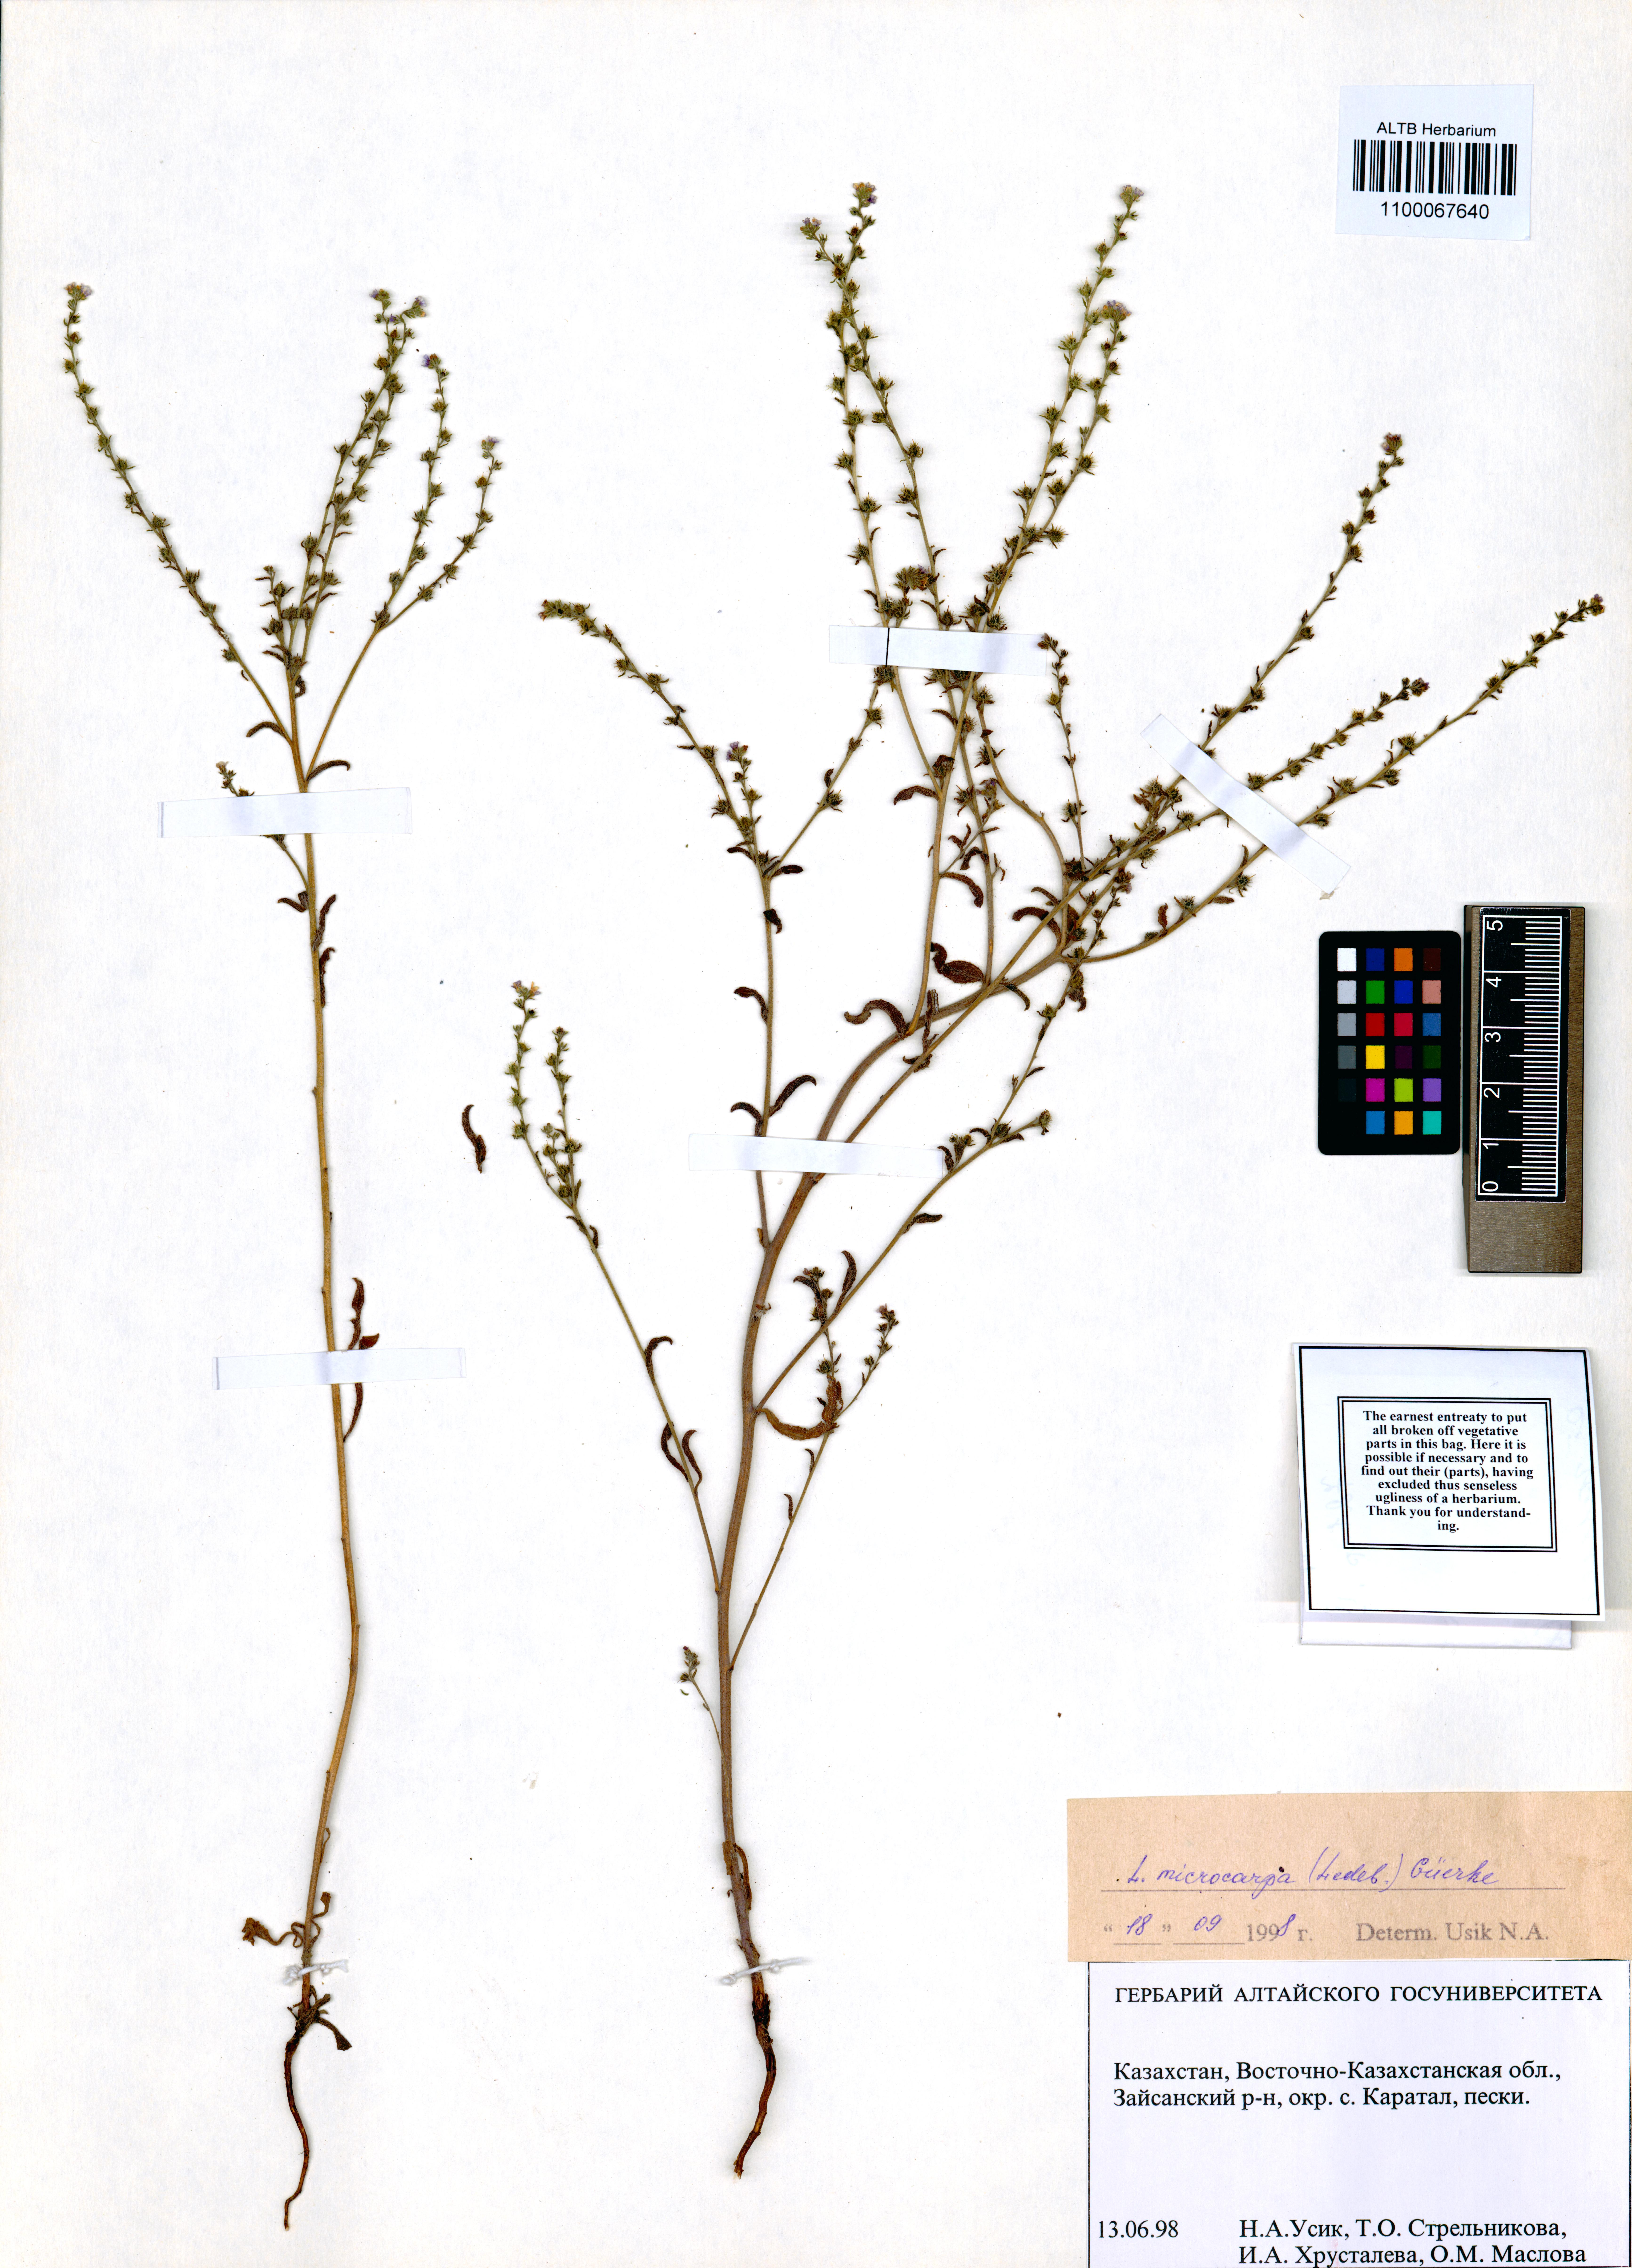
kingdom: Plantae
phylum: Tracheophyta
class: Magnoliopsida
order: Boraginales
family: Boraginaceae
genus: Lappula
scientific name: Lappula microcarpa
